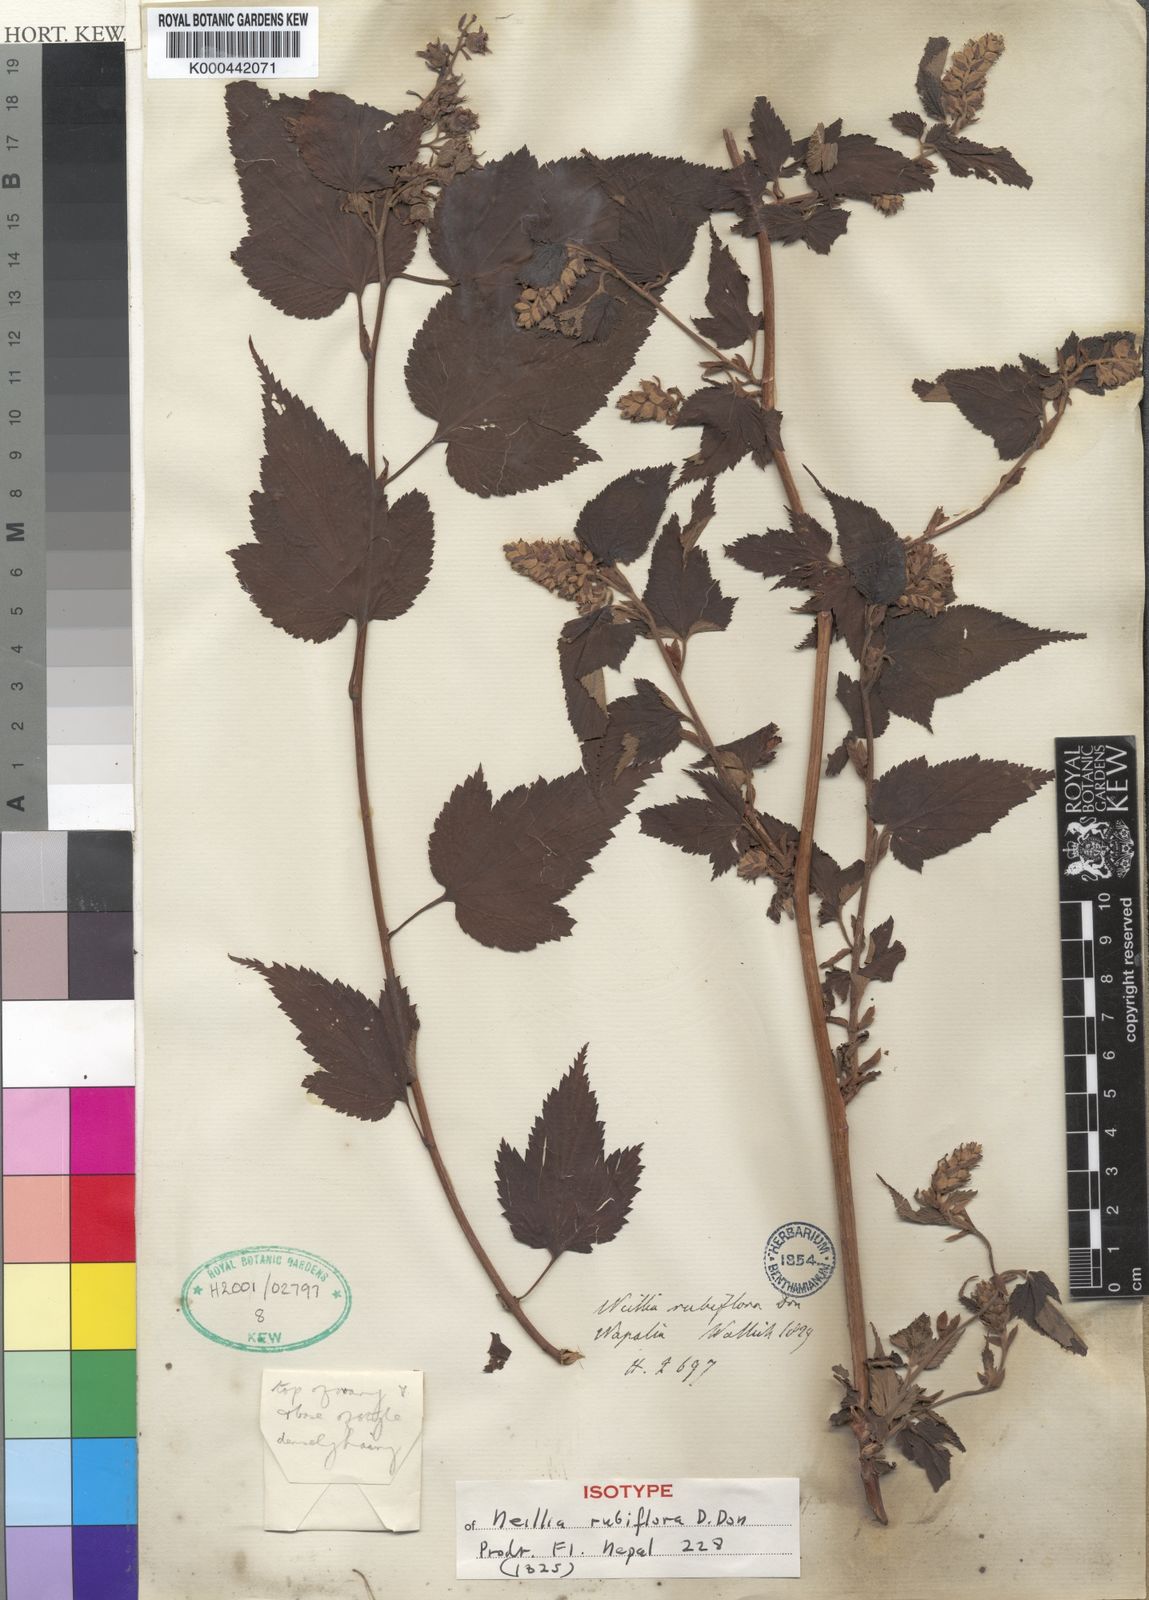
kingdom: Plantae
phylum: Tracheophyta
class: Magnoliopsida
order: Rosales
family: Rosaceae
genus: Neillia
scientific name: Neillia rubiflora
